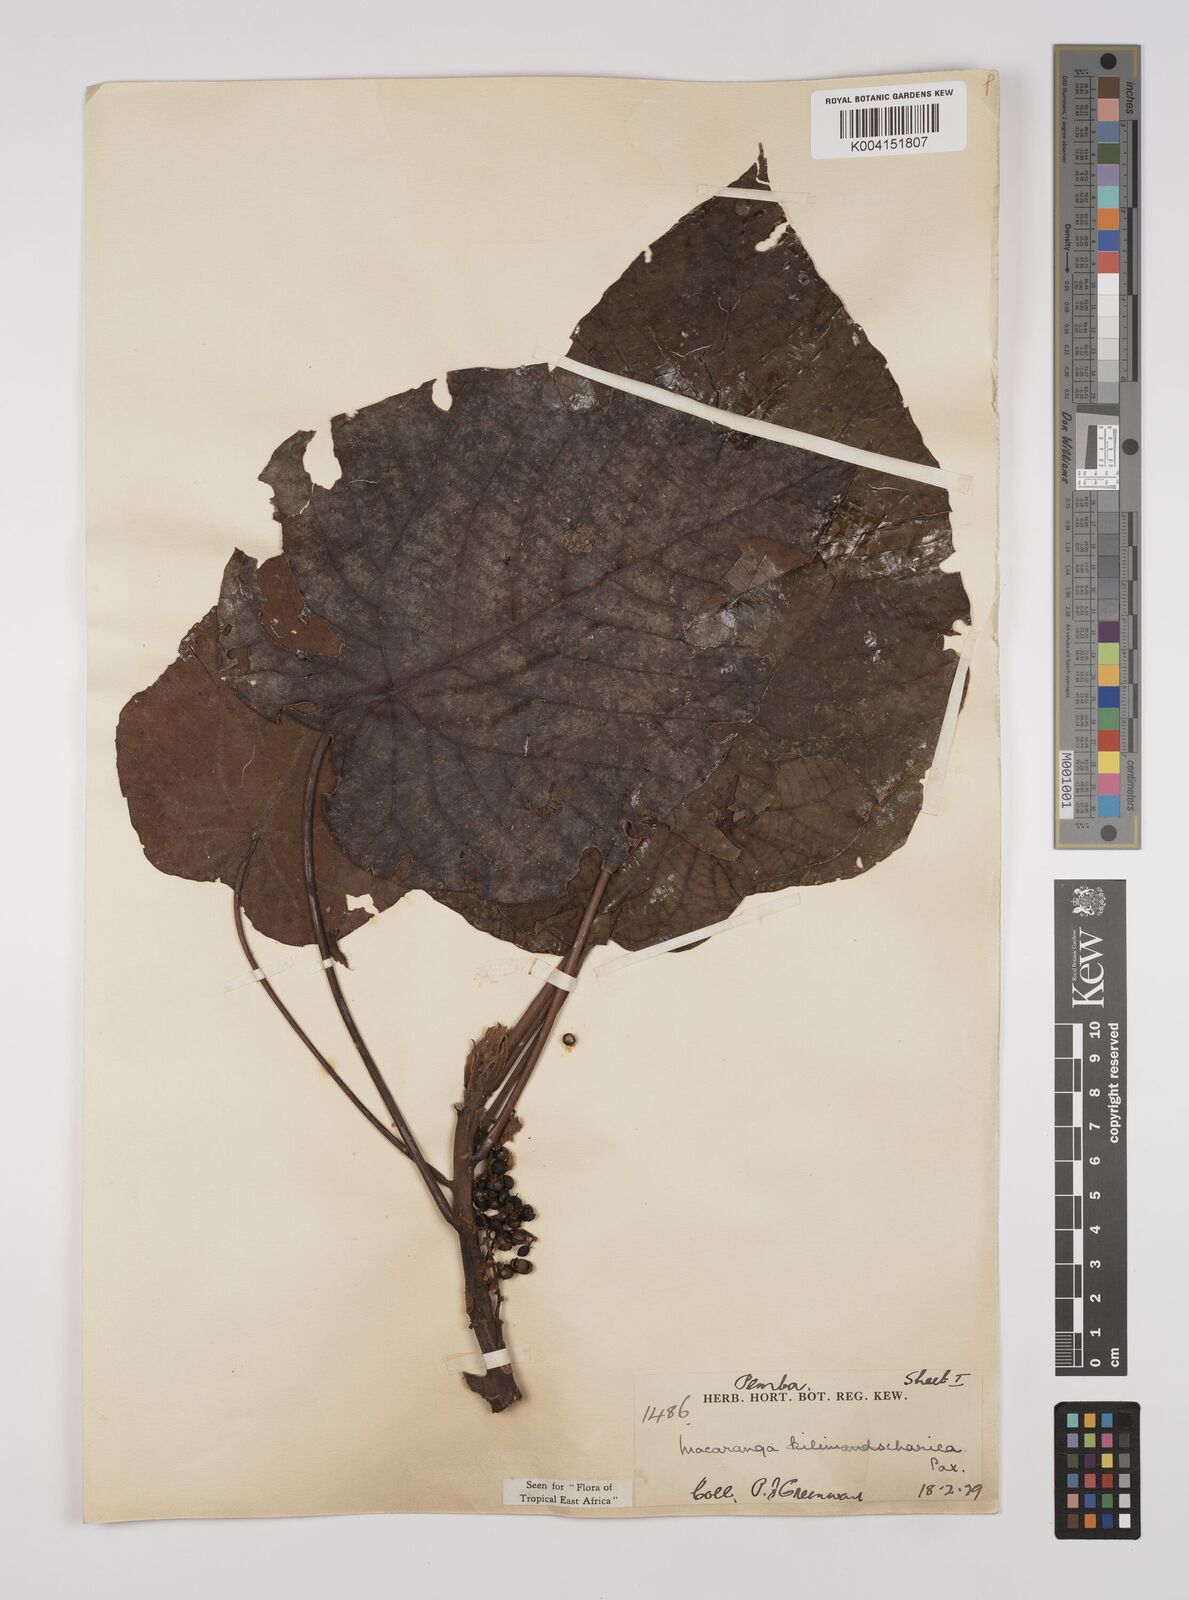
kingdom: Plantae
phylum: Tracheophyta
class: Magnoliopsida
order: Malpighiales
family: Euphorbiaceae
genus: Macaranga
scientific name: Macaranga capensis
